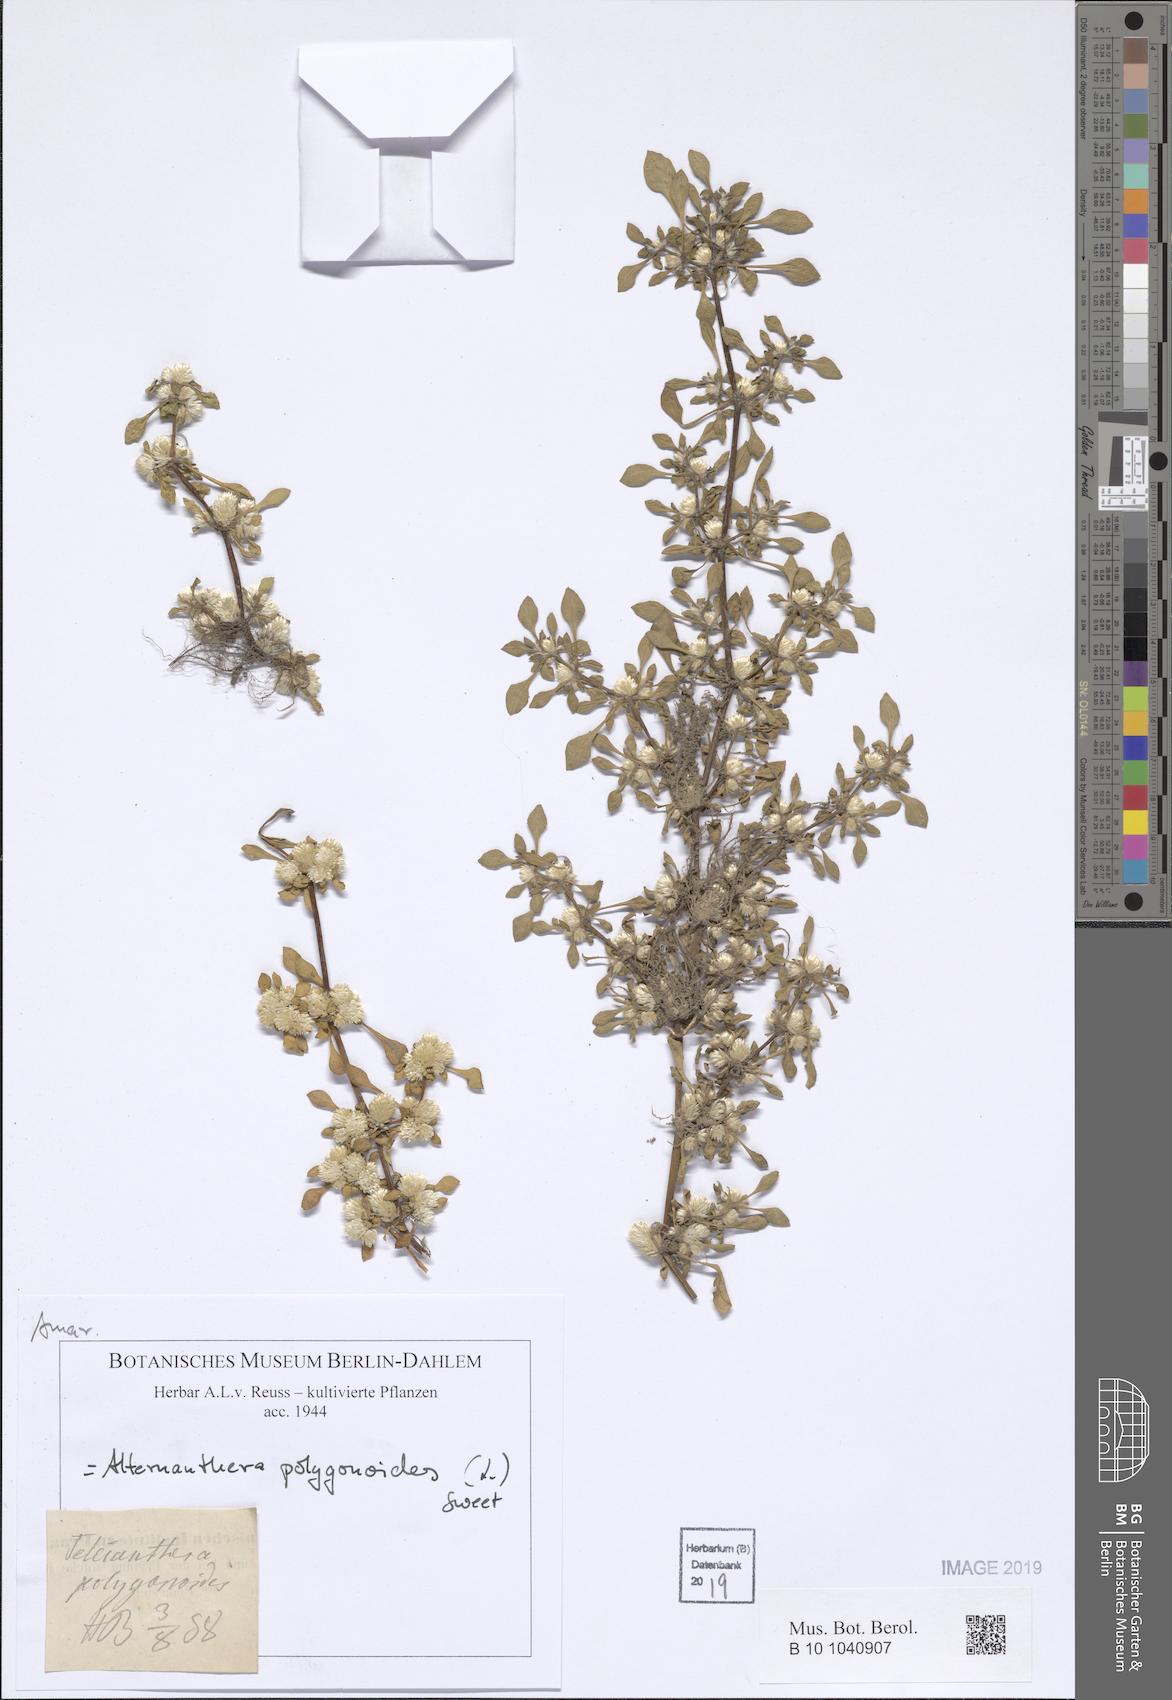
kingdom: Plantae
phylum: Tracheophyta
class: Magnoliopsida
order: Caryophyllales
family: Amaranthaceae
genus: Alternanthera
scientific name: Alternanthera sessilis
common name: Sessile joyweed
